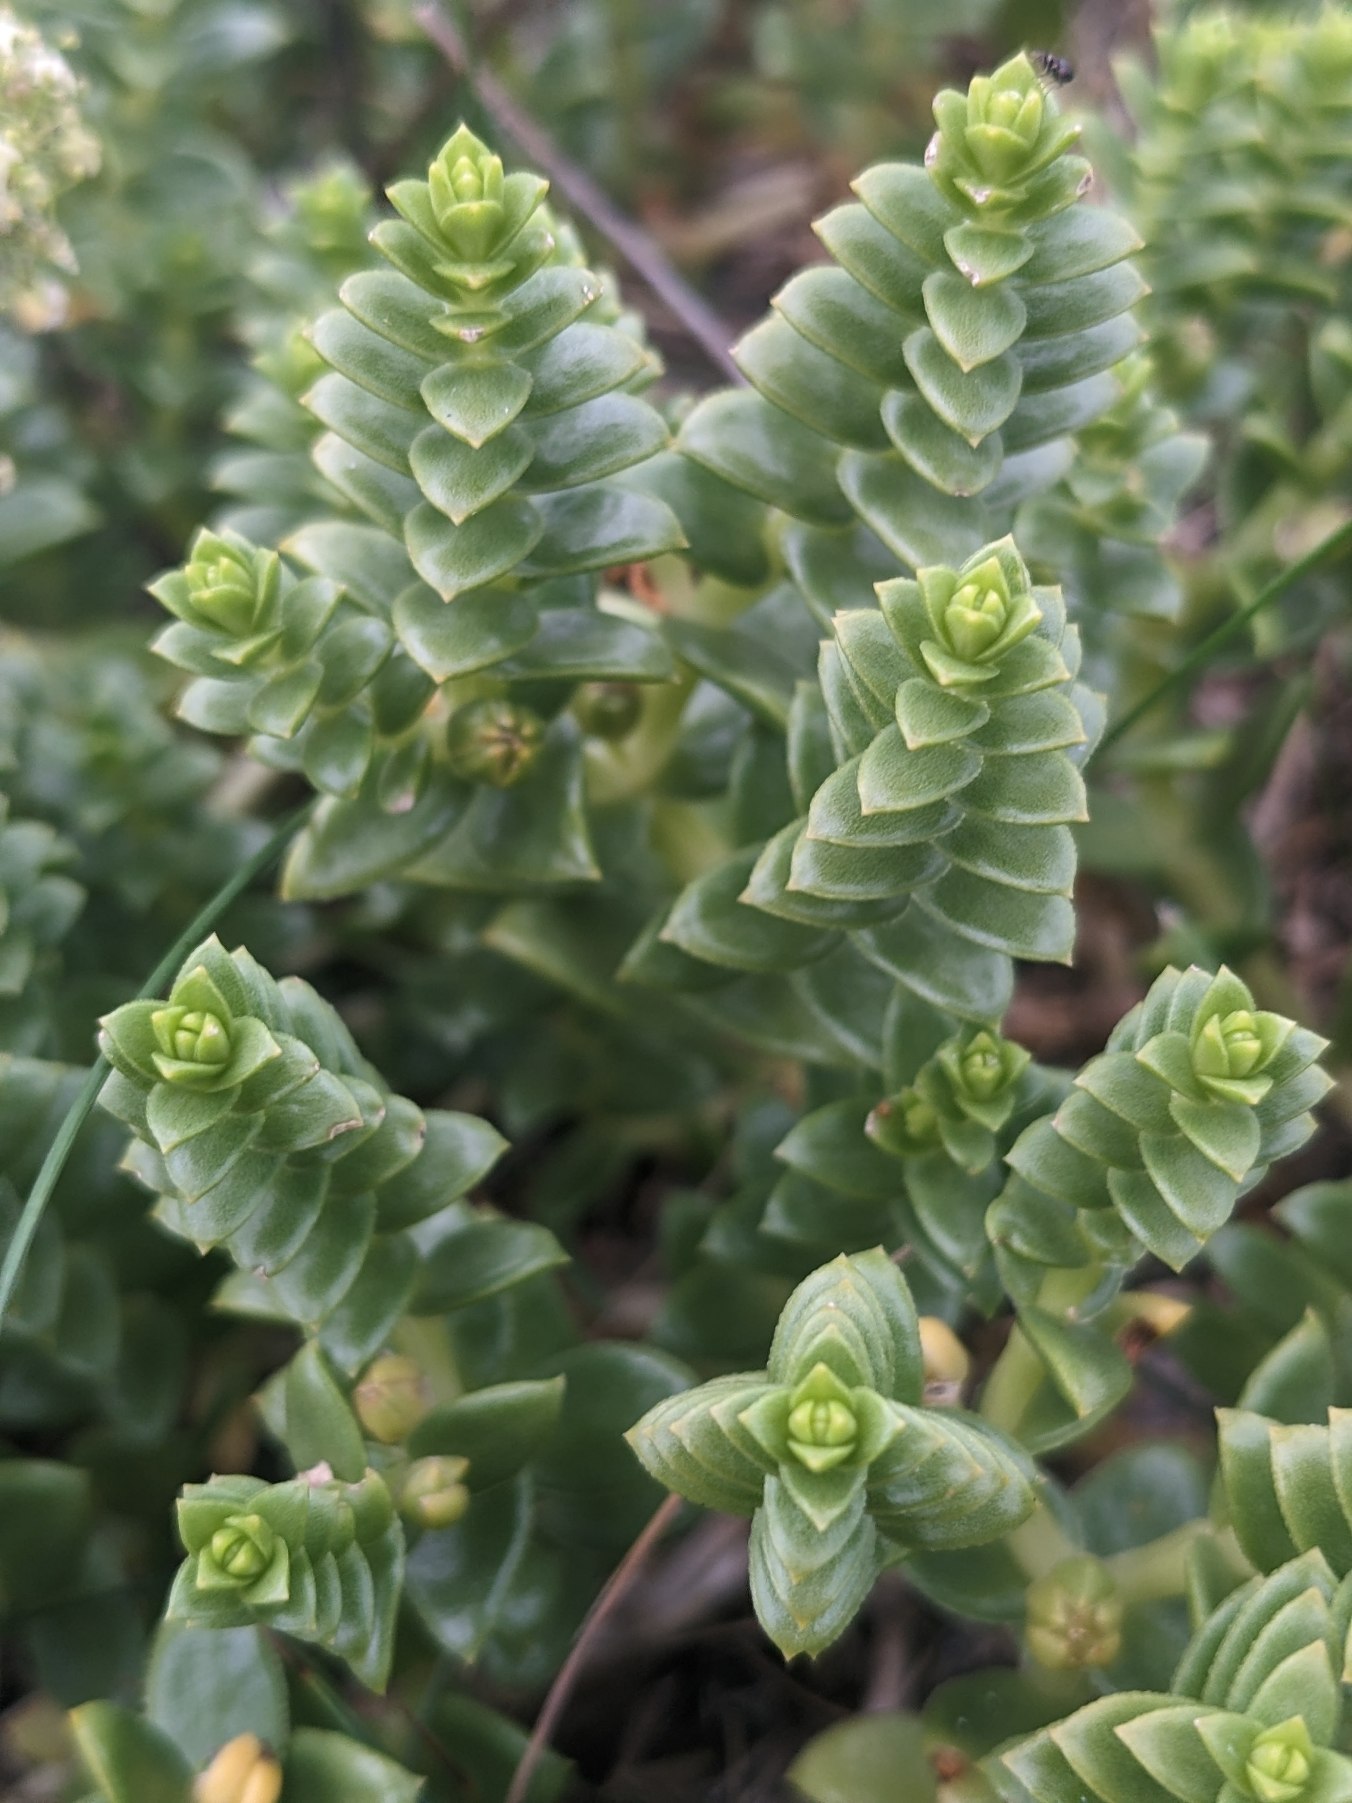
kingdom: Plantae
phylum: Tracheophyta
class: Magnoliopsida
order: Caryophyllales
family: Caryophyllaceae
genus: Honckenya
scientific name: Honckenya peploides
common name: Strandarve
